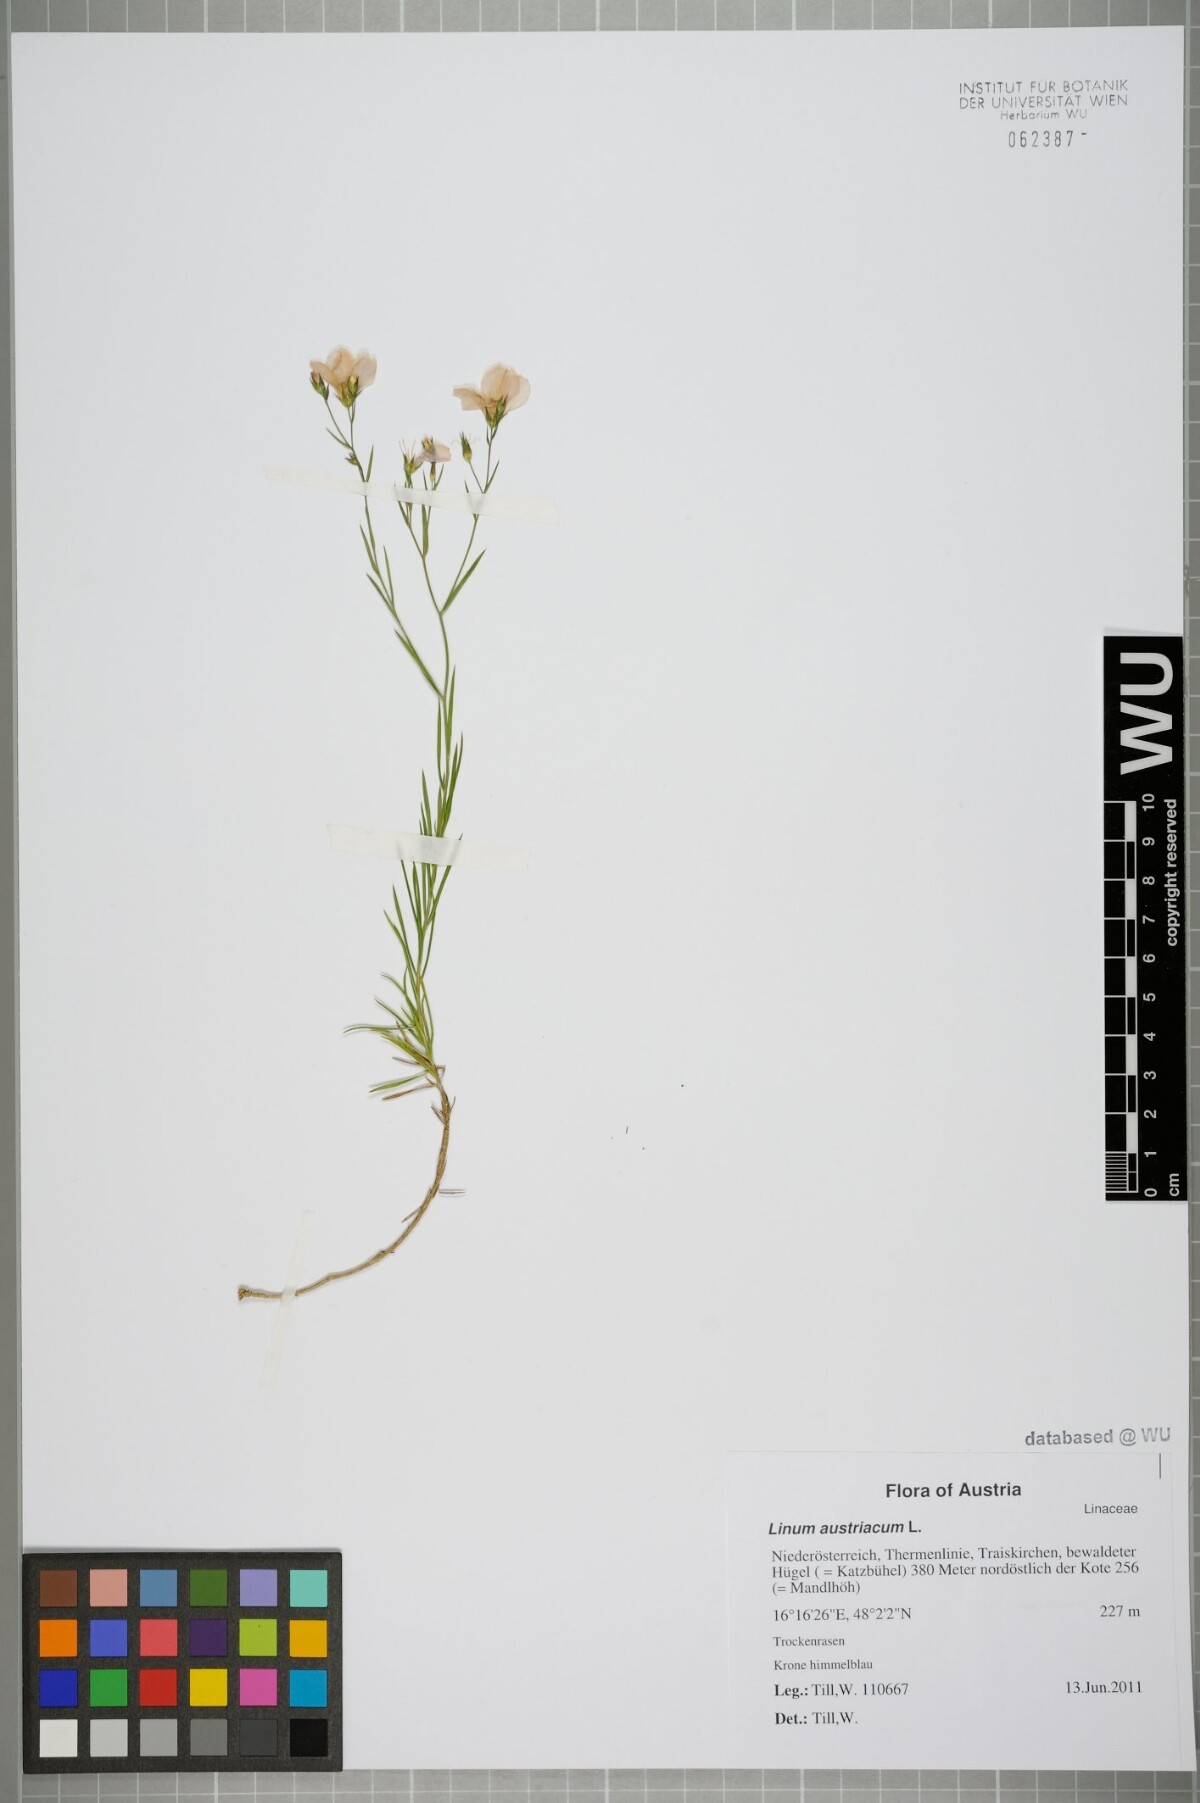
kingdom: Plantae
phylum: Tracheophyta
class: Magnoliopsida
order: Malpighiales
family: Linaceae
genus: Linum
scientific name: Linum austriacum
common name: Austrian flax
